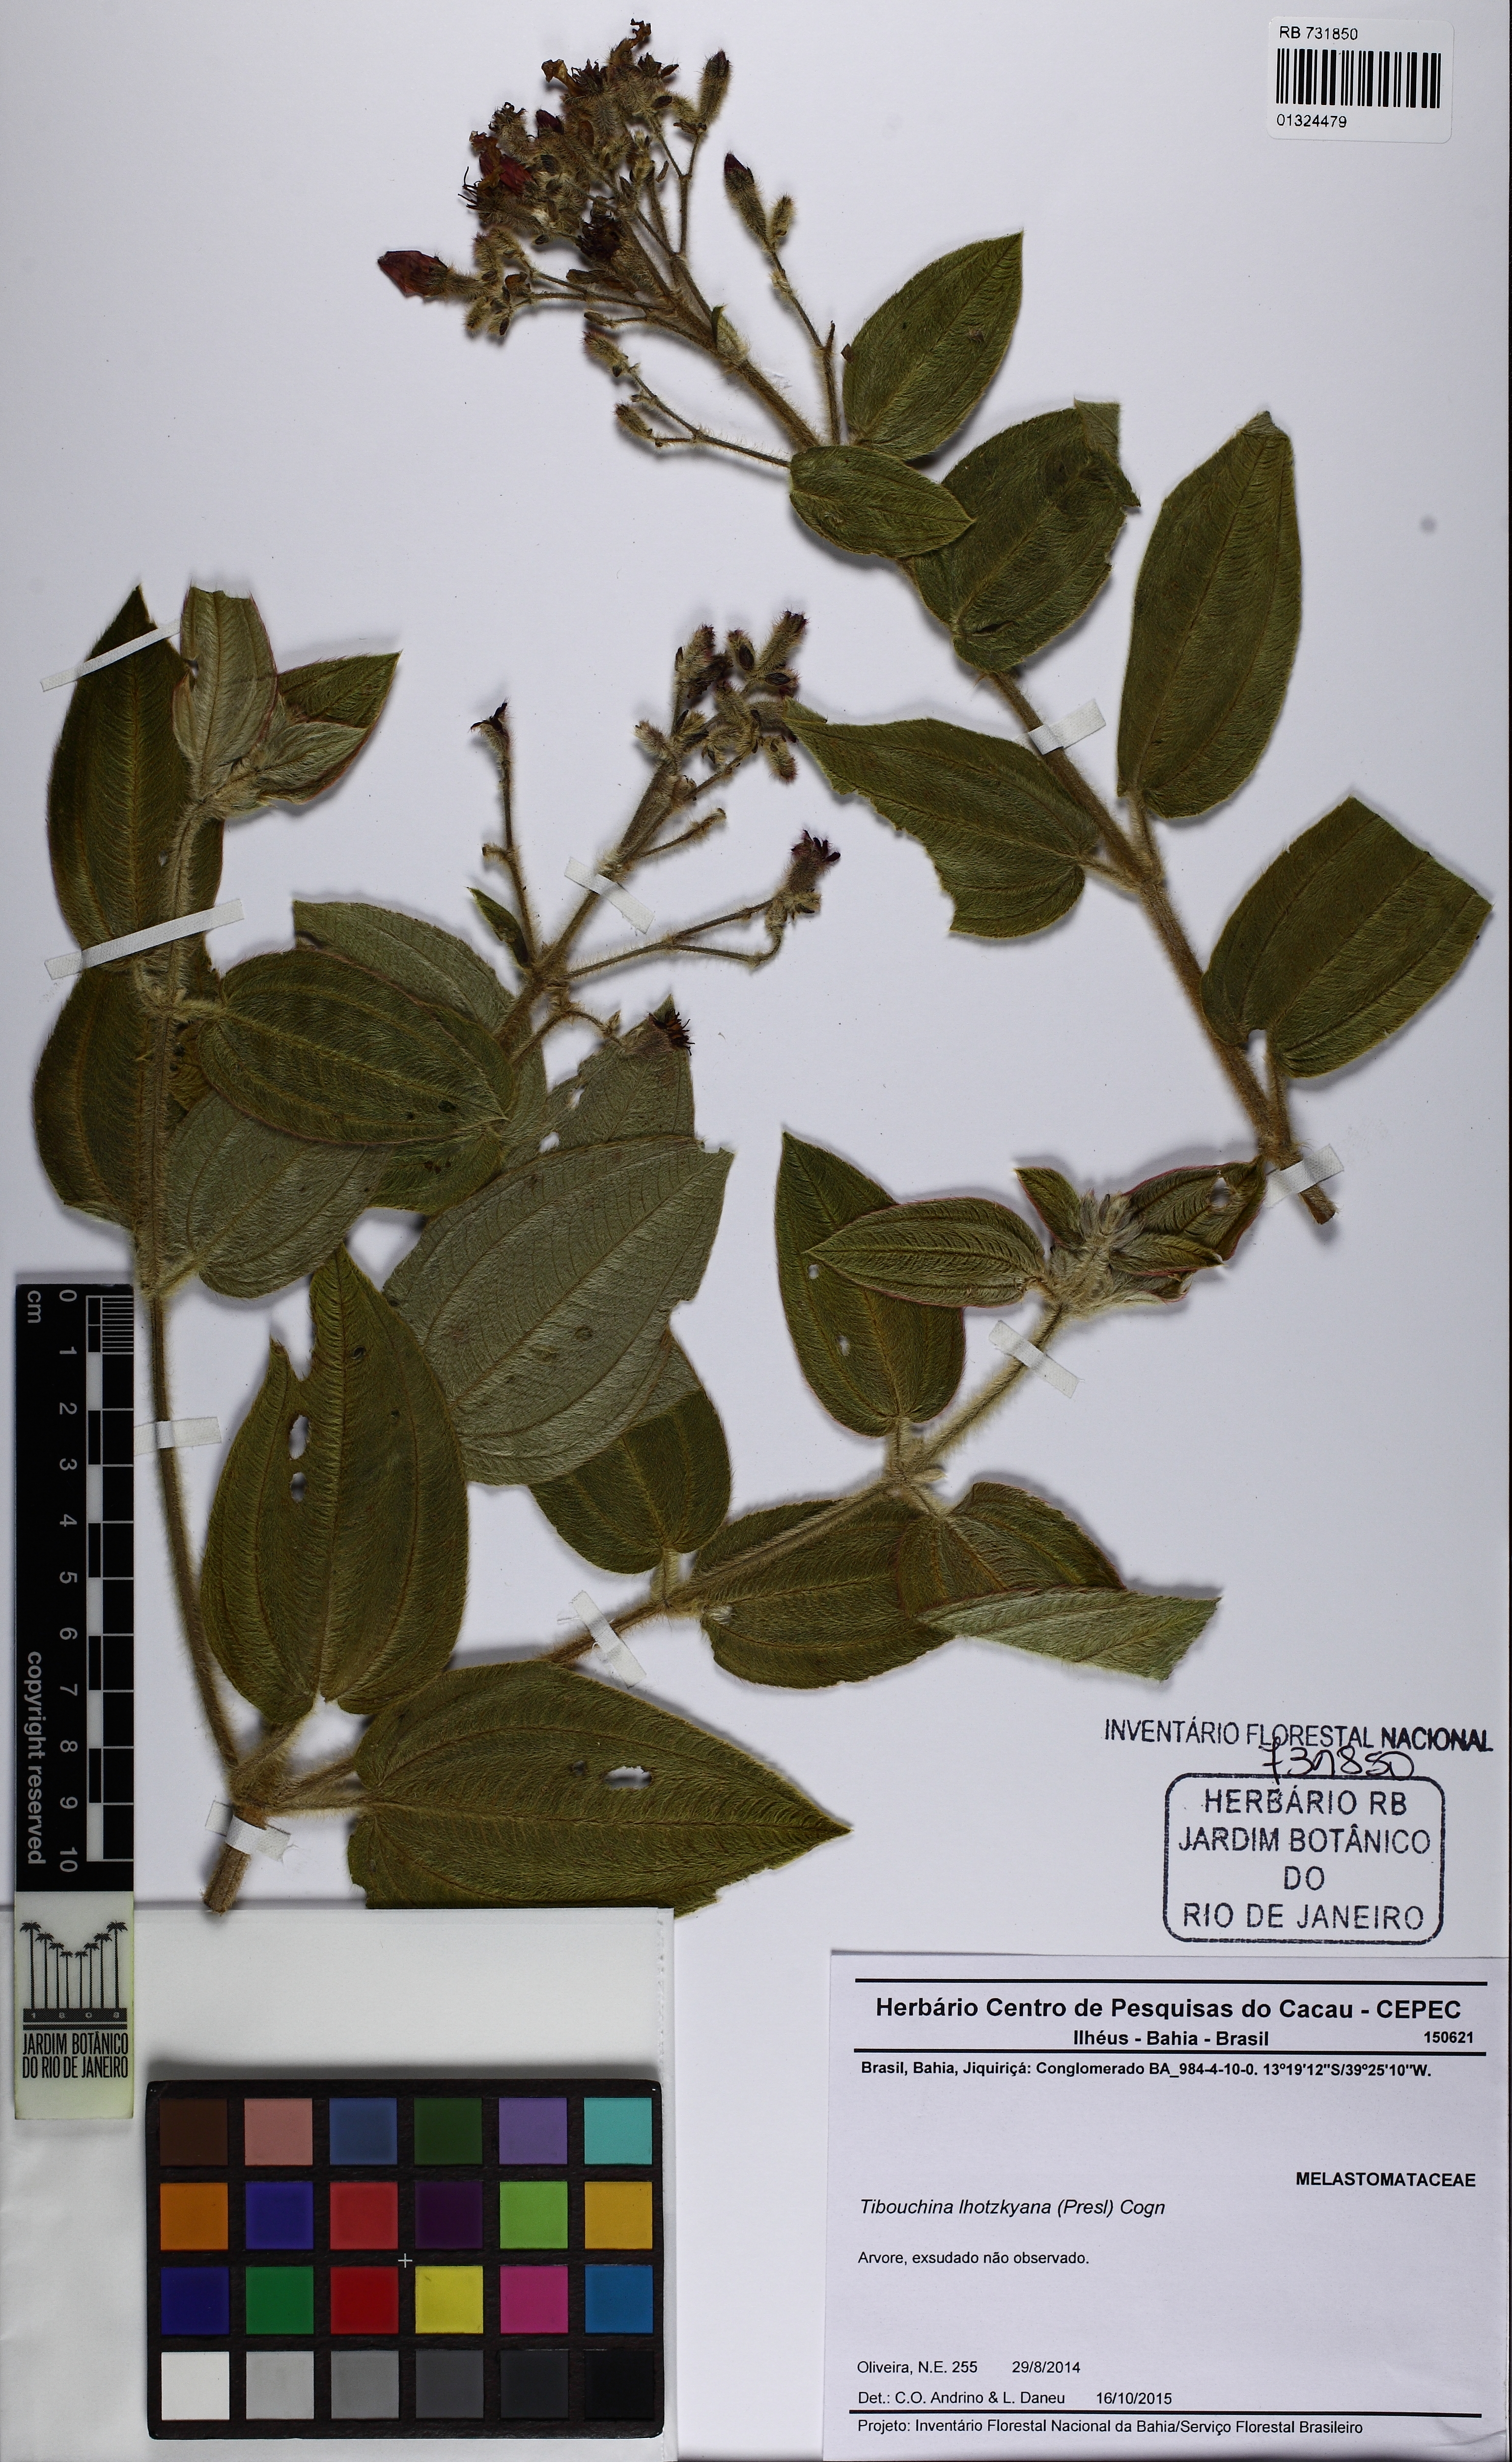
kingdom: Plantae
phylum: Tracheophyta
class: Magnoliopsida
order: Myrtales
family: Melastomataceae
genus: Chaetogastra
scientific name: Chaetogastra lhotskyana
